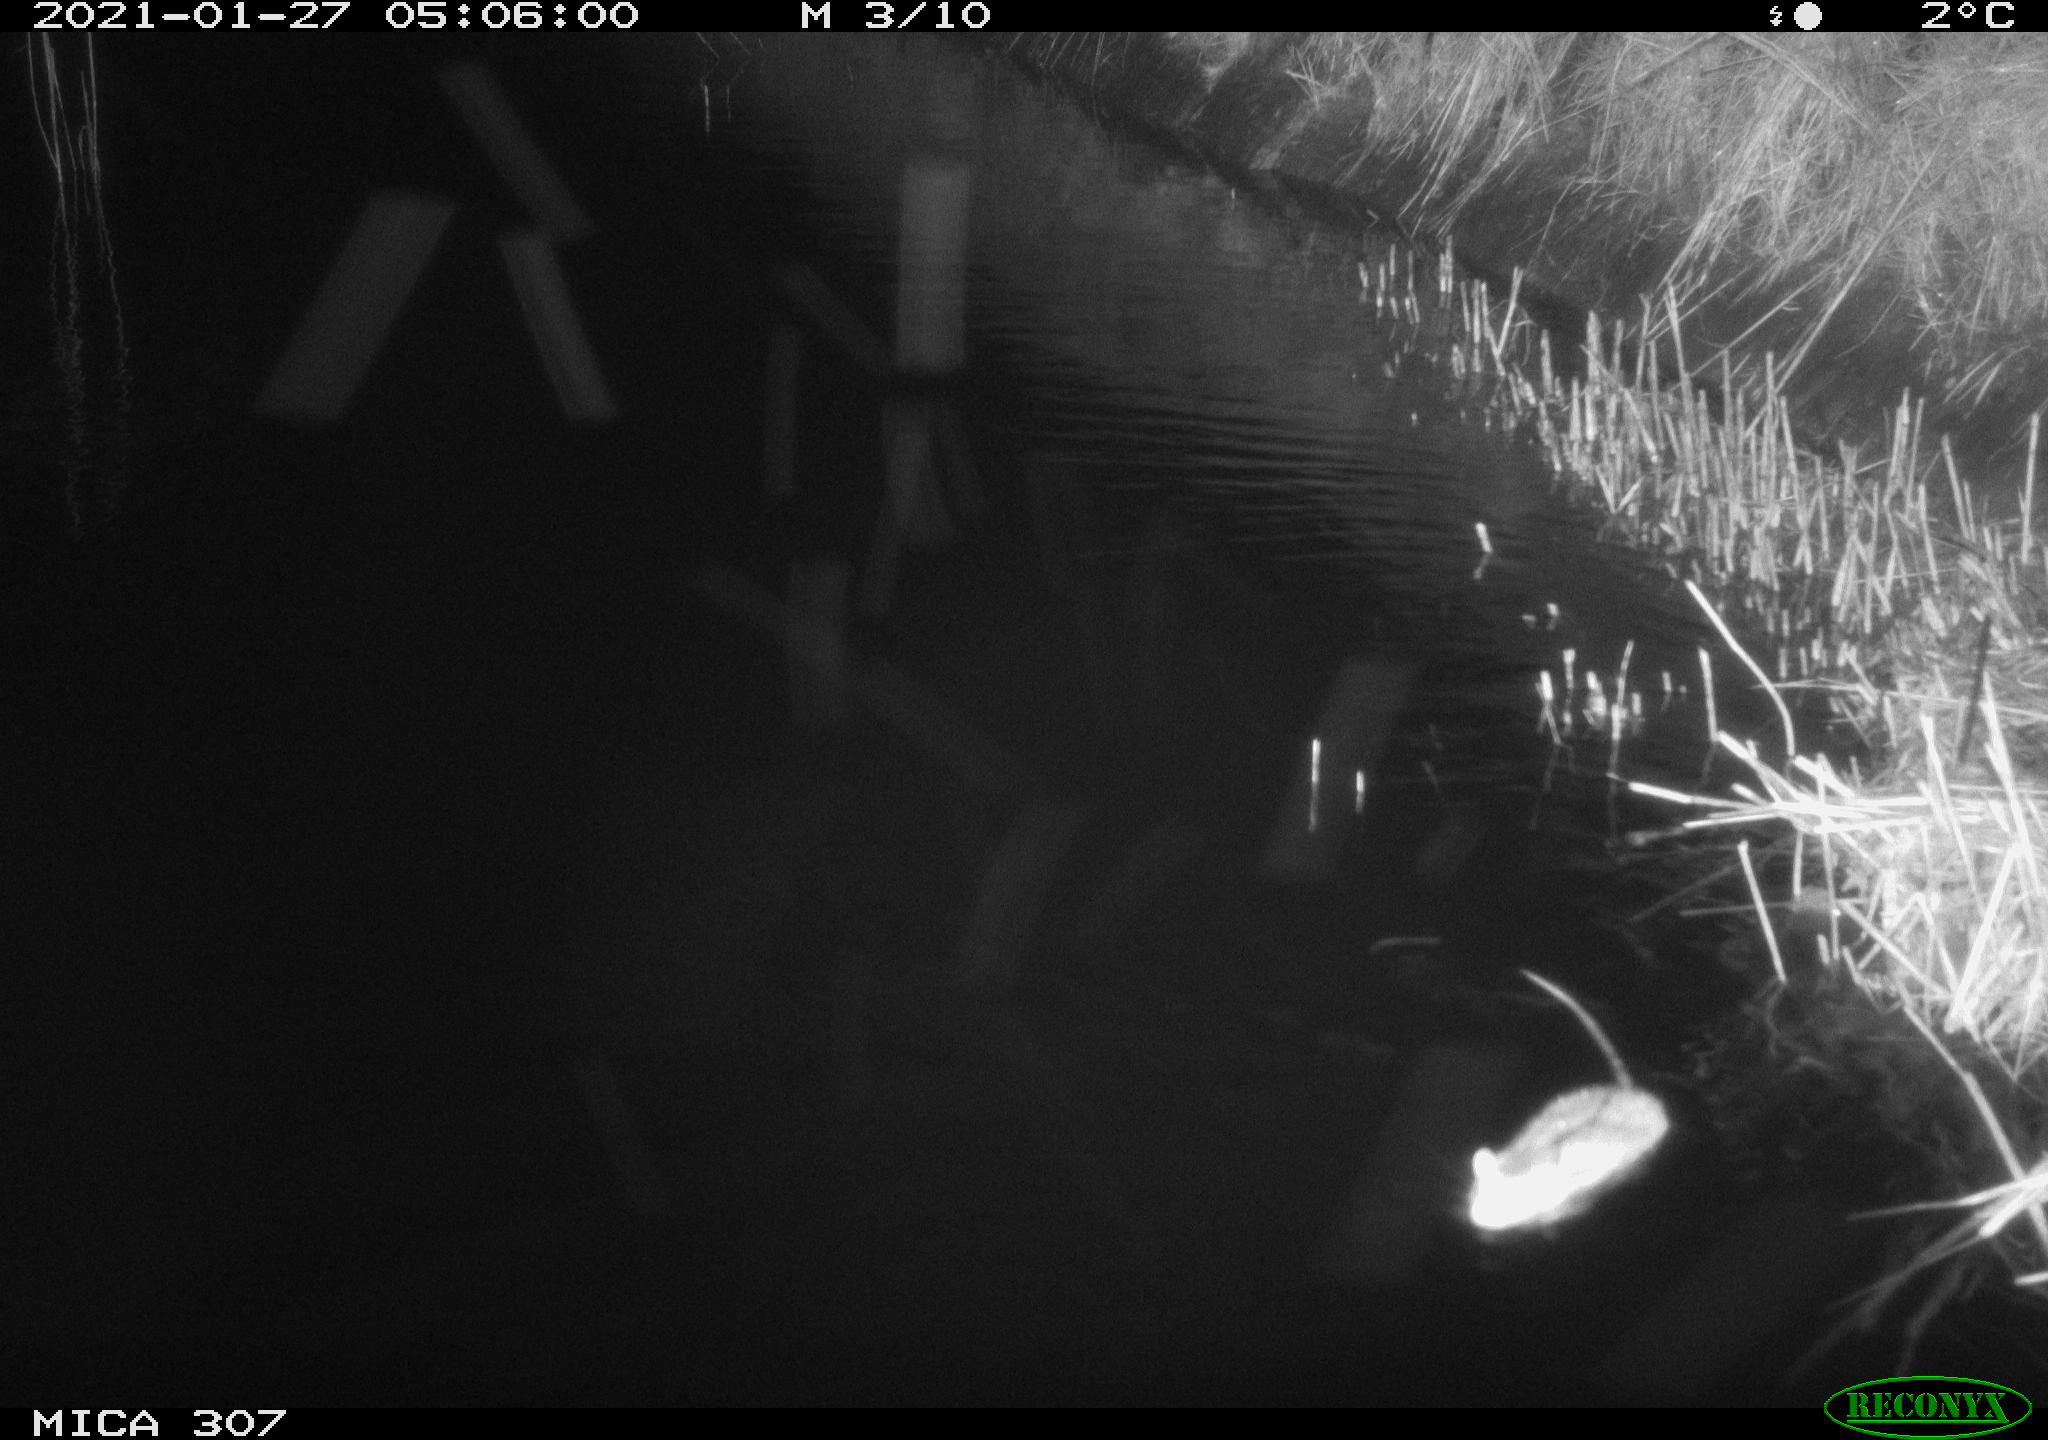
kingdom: Animalia
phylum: Chordata
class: Mammalia
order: Rodentia
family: Cricetidae
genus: Ondatra
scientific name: Ondatra zibethicus
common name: Muskrat
